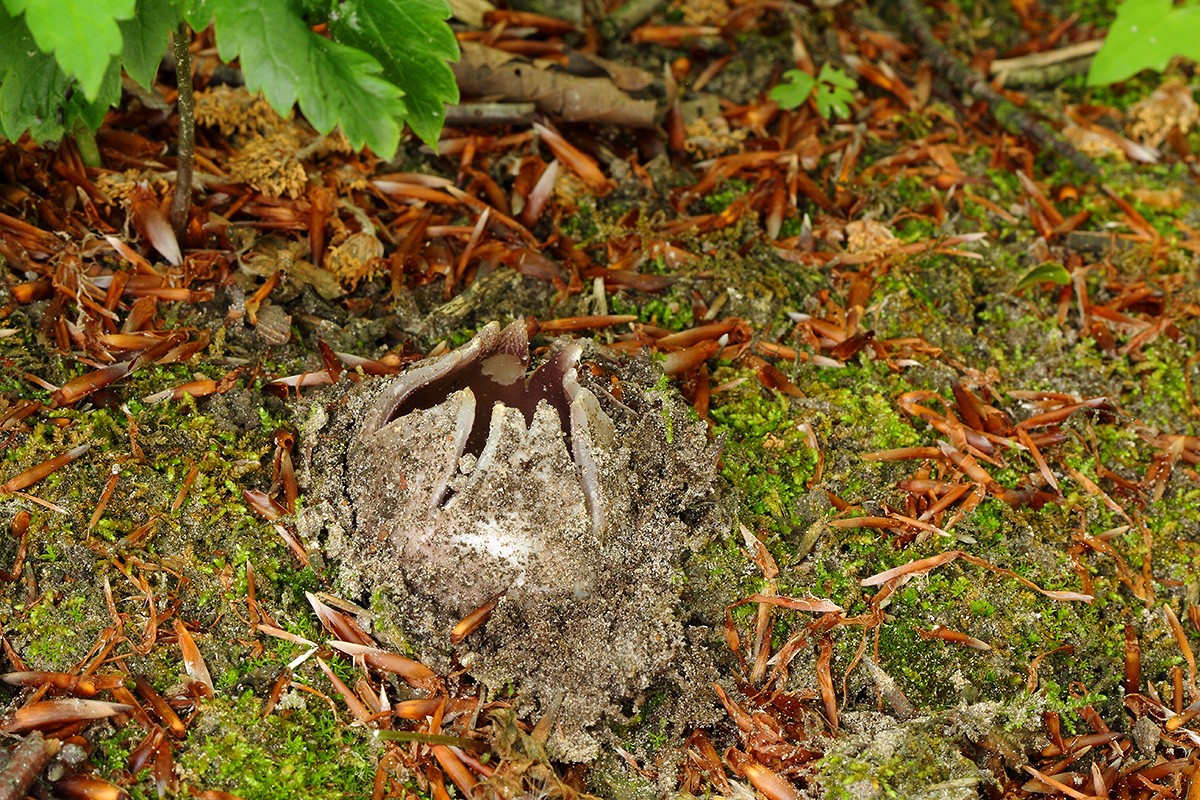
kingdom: Fungi
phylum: Ascomycota
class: Pezizomycetes
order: Pezizales
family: Pezizaceae
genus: Sarcosphaera
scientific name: Sarcosphaera coronaria
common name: stjernebæger
